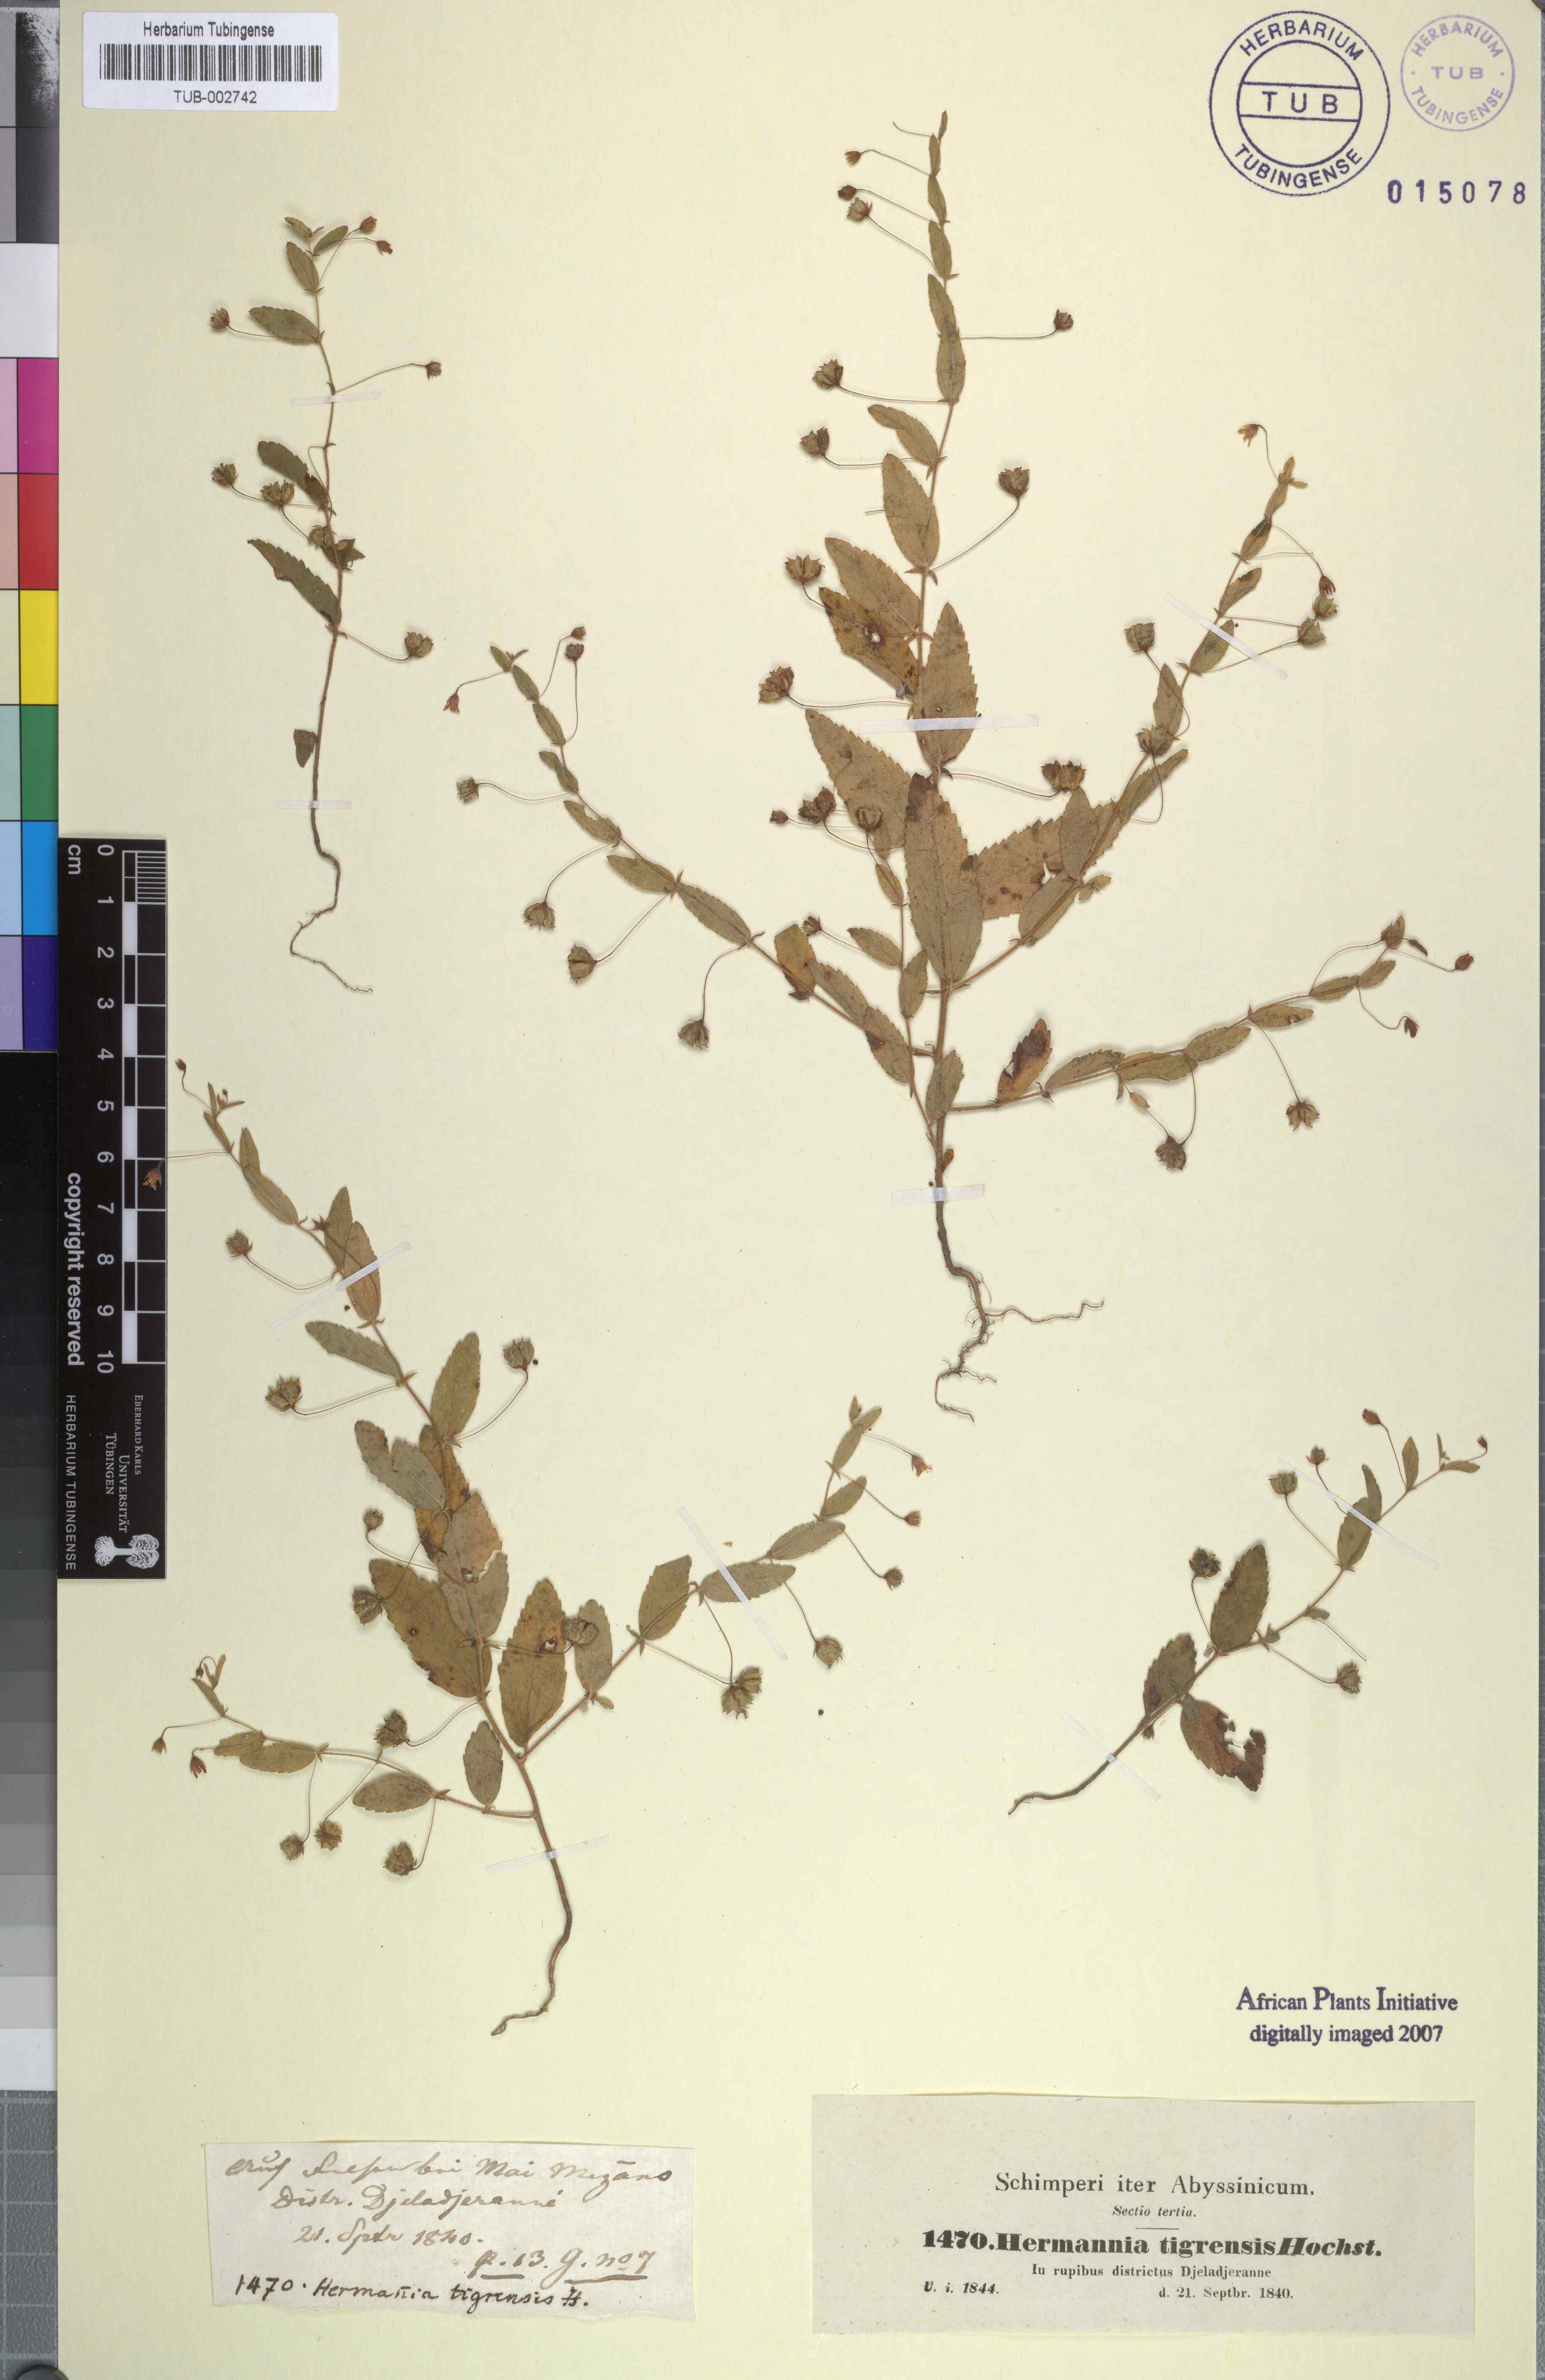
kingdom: Plantae
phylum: Tracheophyta
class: Magnoliopsida
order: Malvales
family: Malvaceae
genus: Hermannia
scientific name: Hermannia tigreensis
